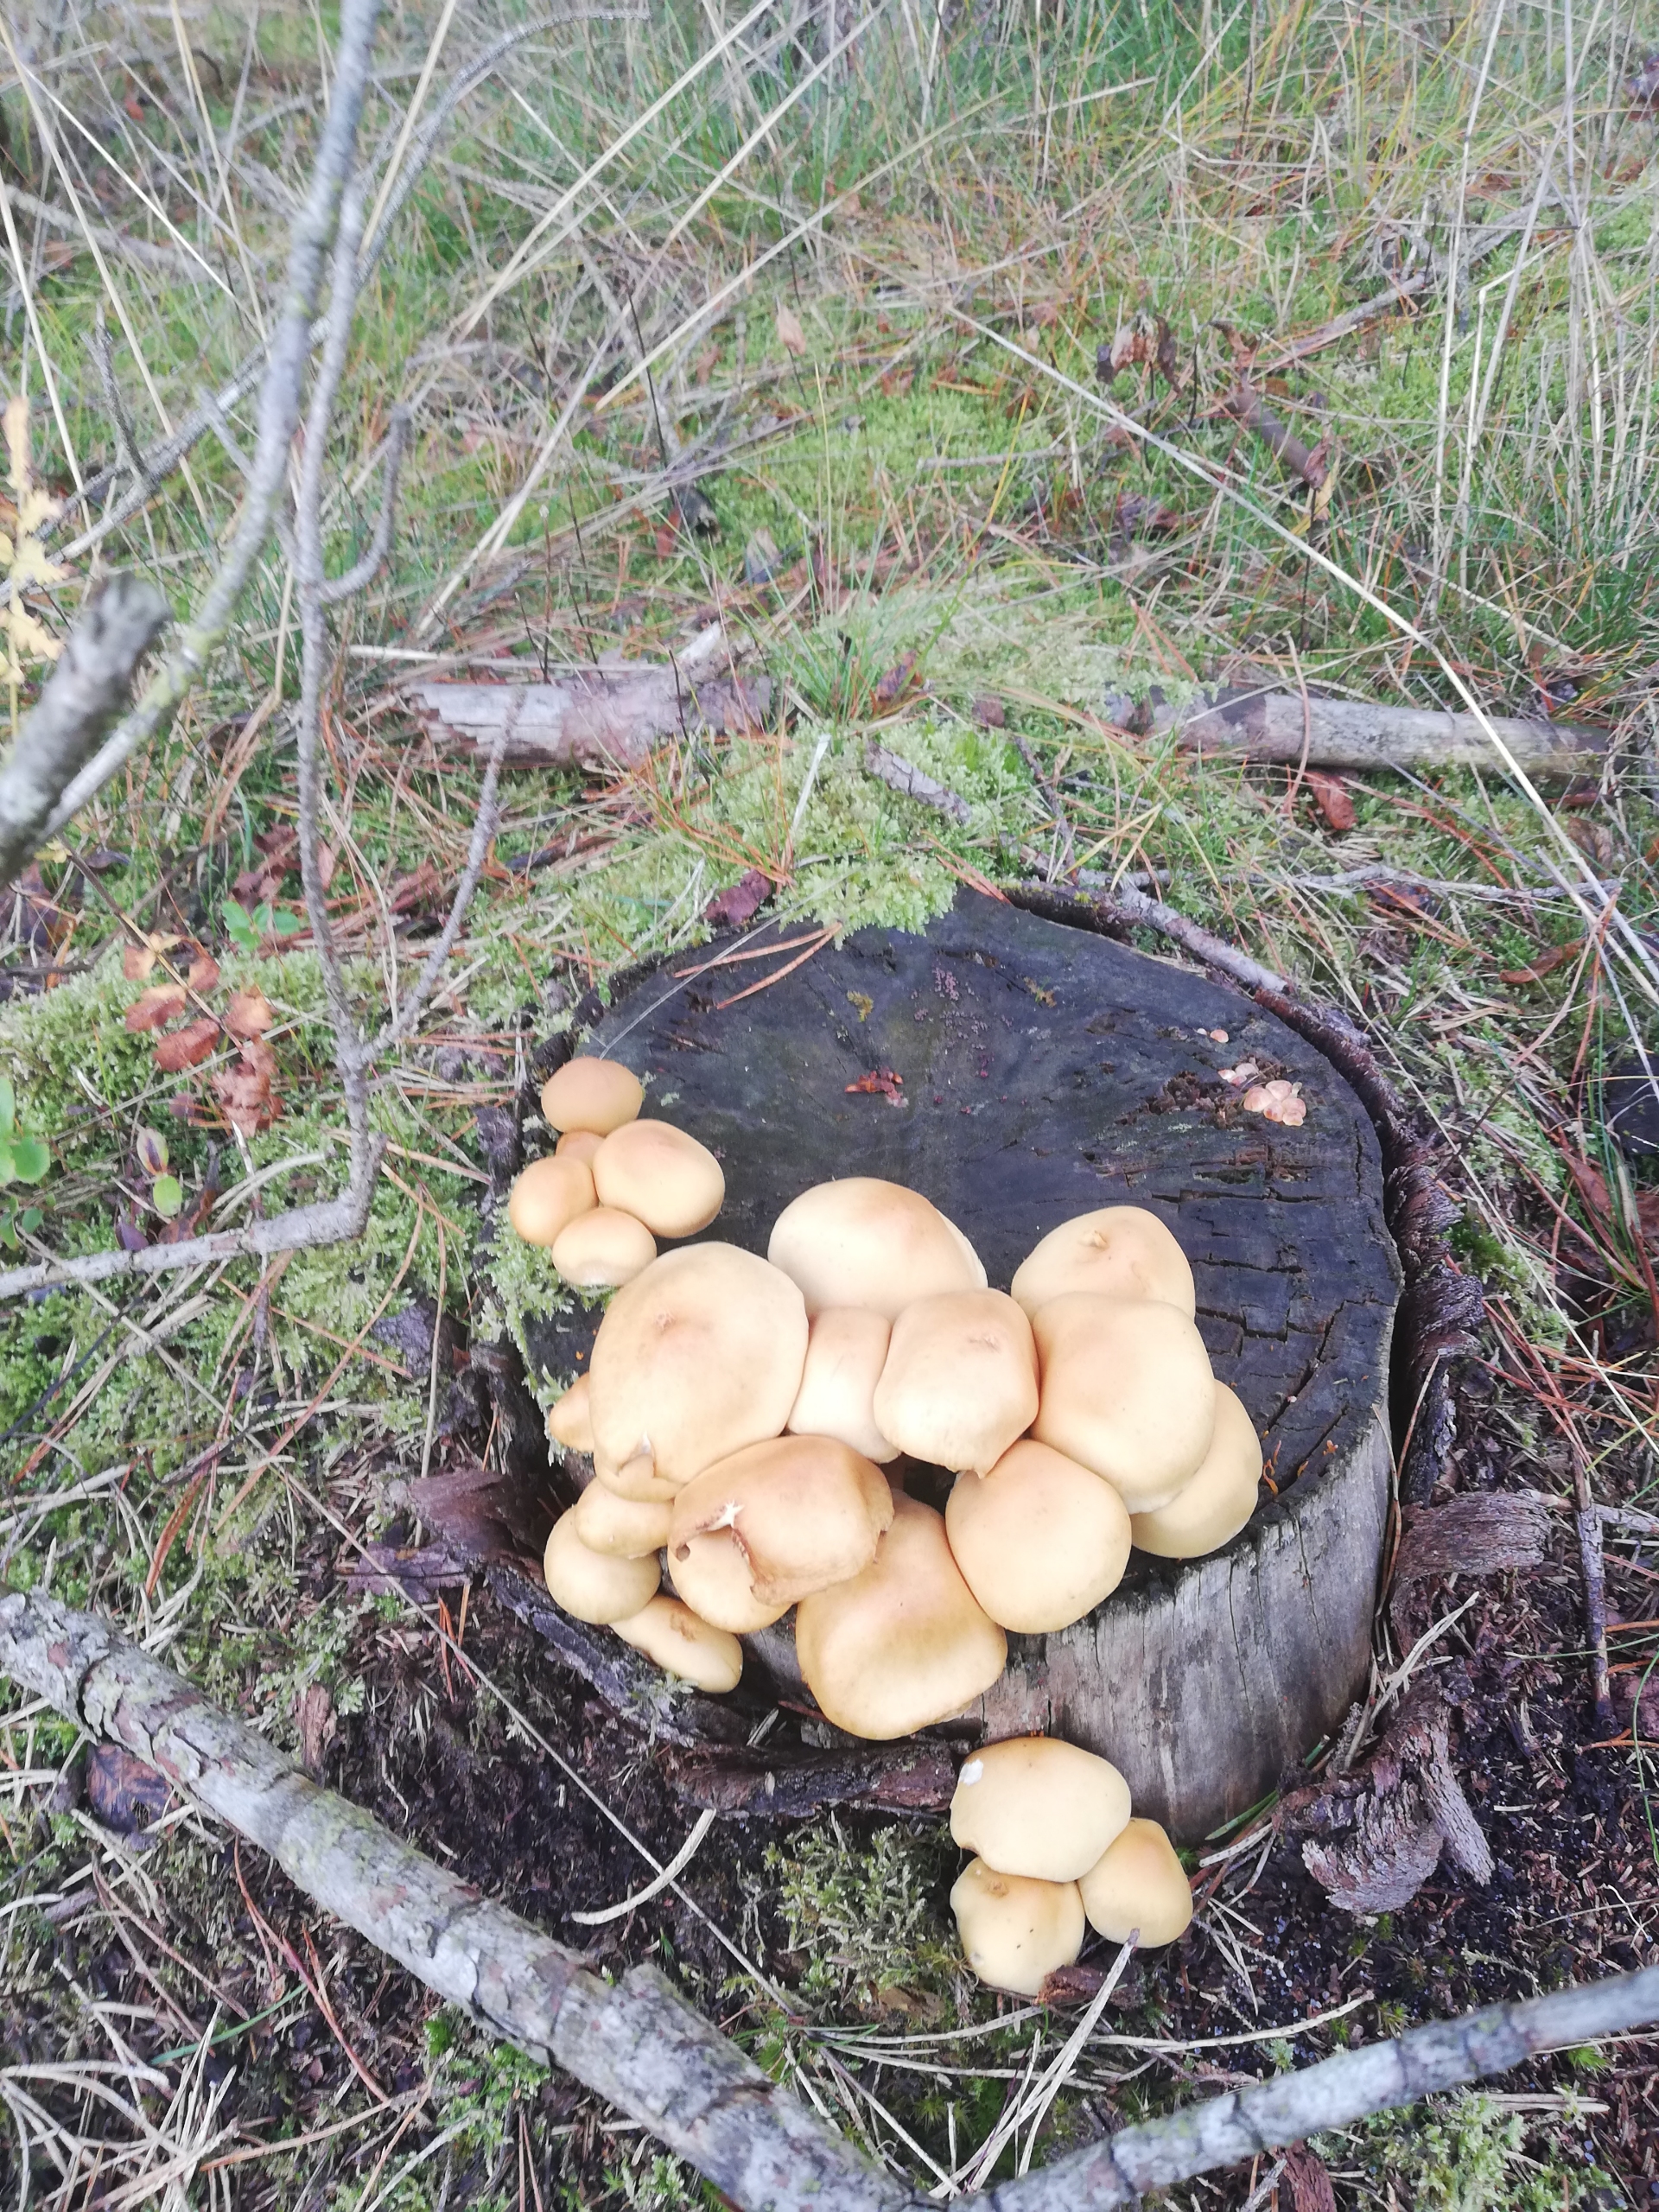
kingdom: Fungi
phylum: Basidiomycota
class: Agaricomycetes
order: Agaricales
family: Strophariaceae
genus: Hypholoma
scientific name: Hypholoma capnoides
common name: Gran-svovlhat
